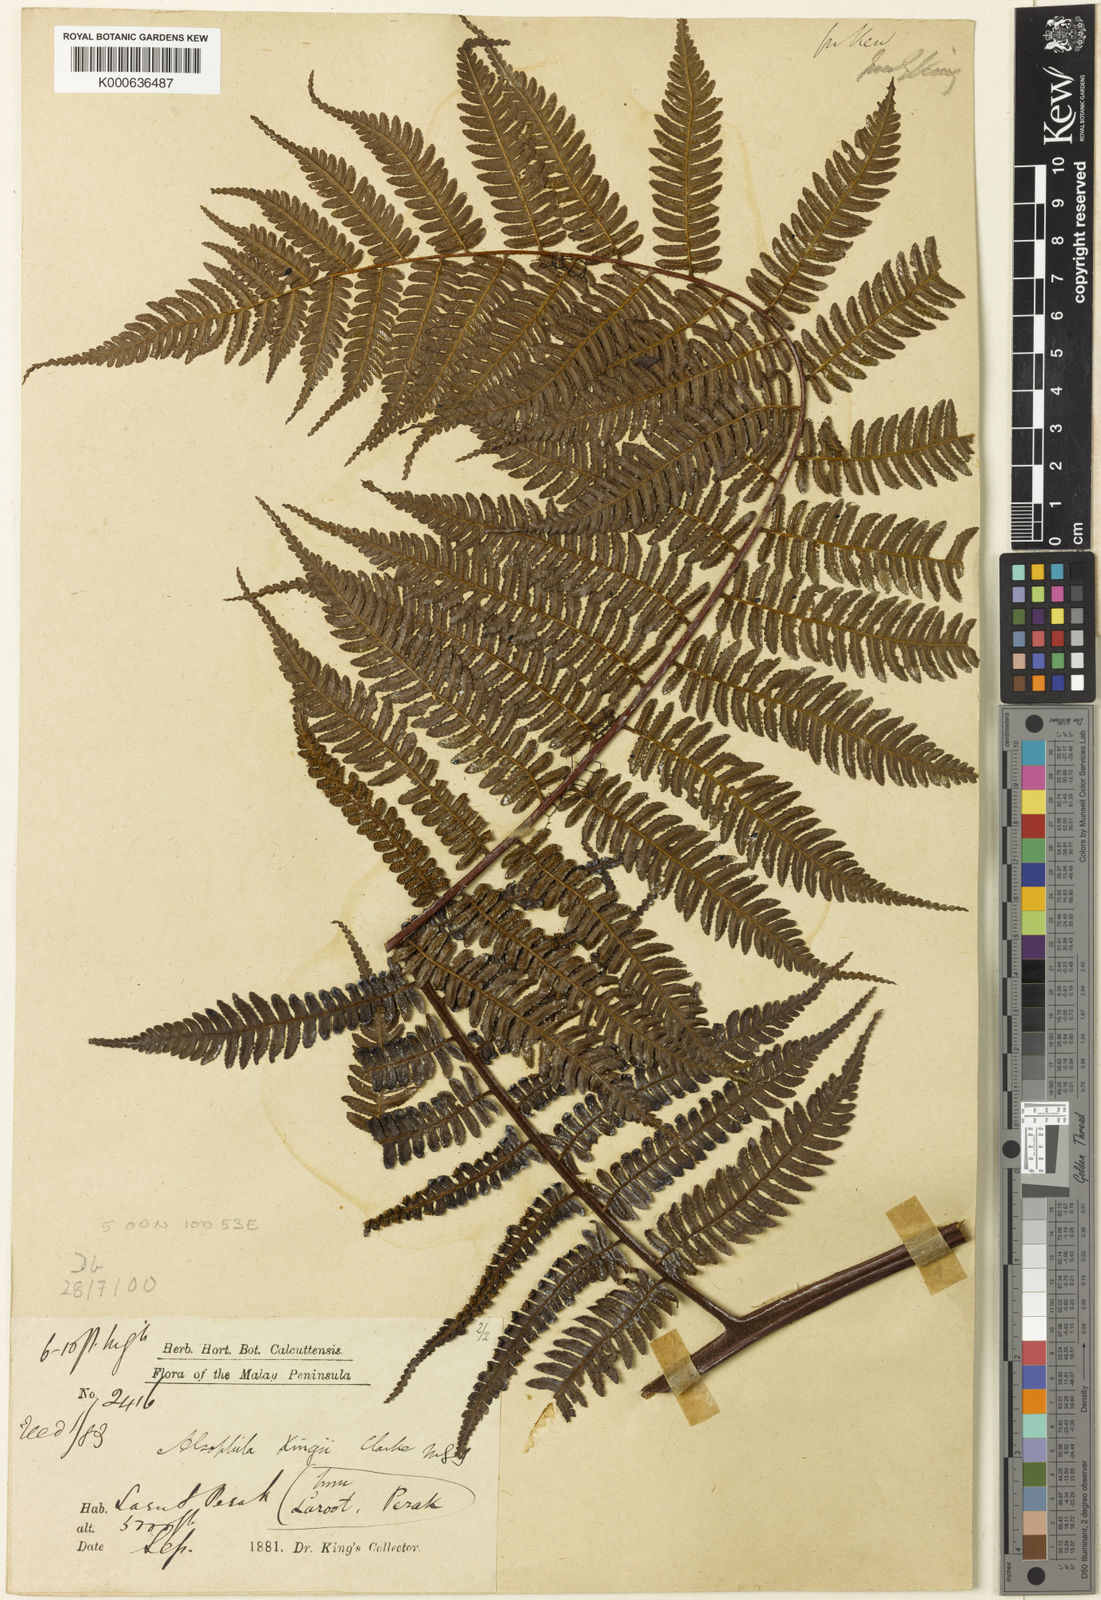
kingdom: Plantae
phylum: Tracheophyta
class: Polypodiopsida
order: Cyatheales
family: Cyatheaceae
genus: Gymnosphaera
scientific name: Gymnosphaera lurida
